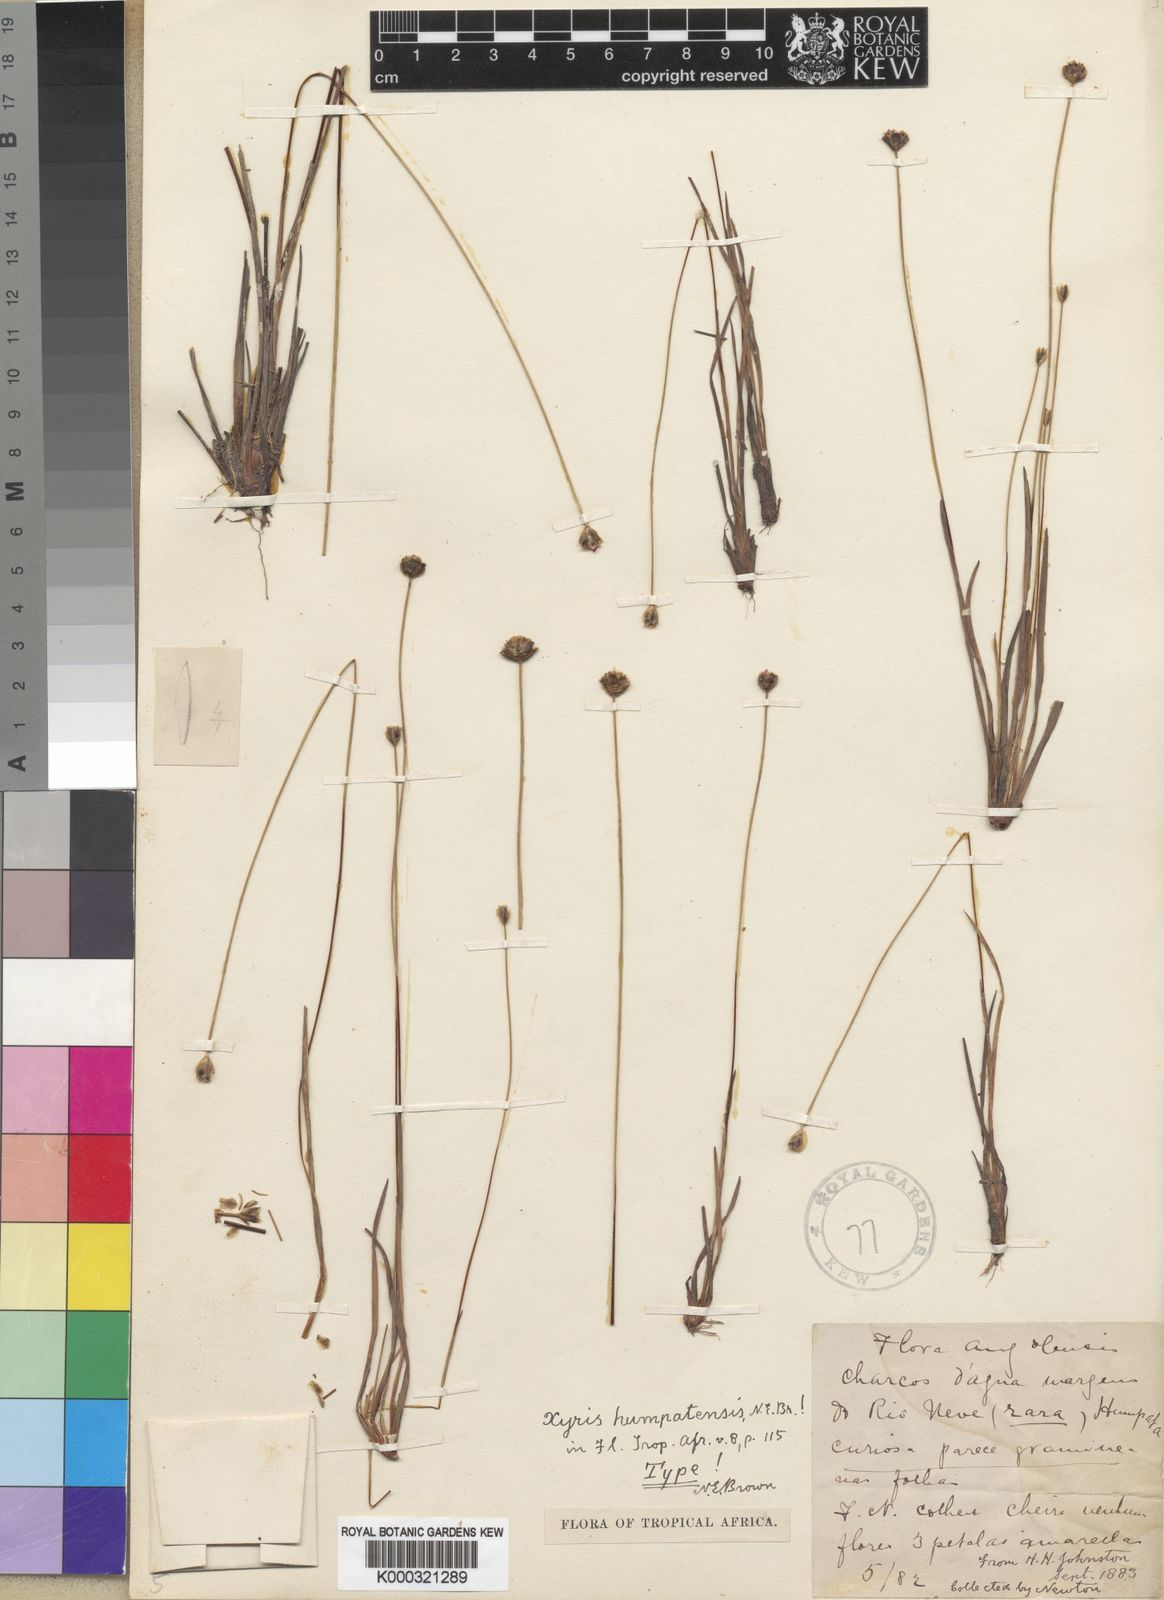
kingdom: Plantae
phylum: Tracheophyta
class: Liliopsida
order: Poales
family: Xyridaceae
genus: Xyris
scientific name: Xyris
